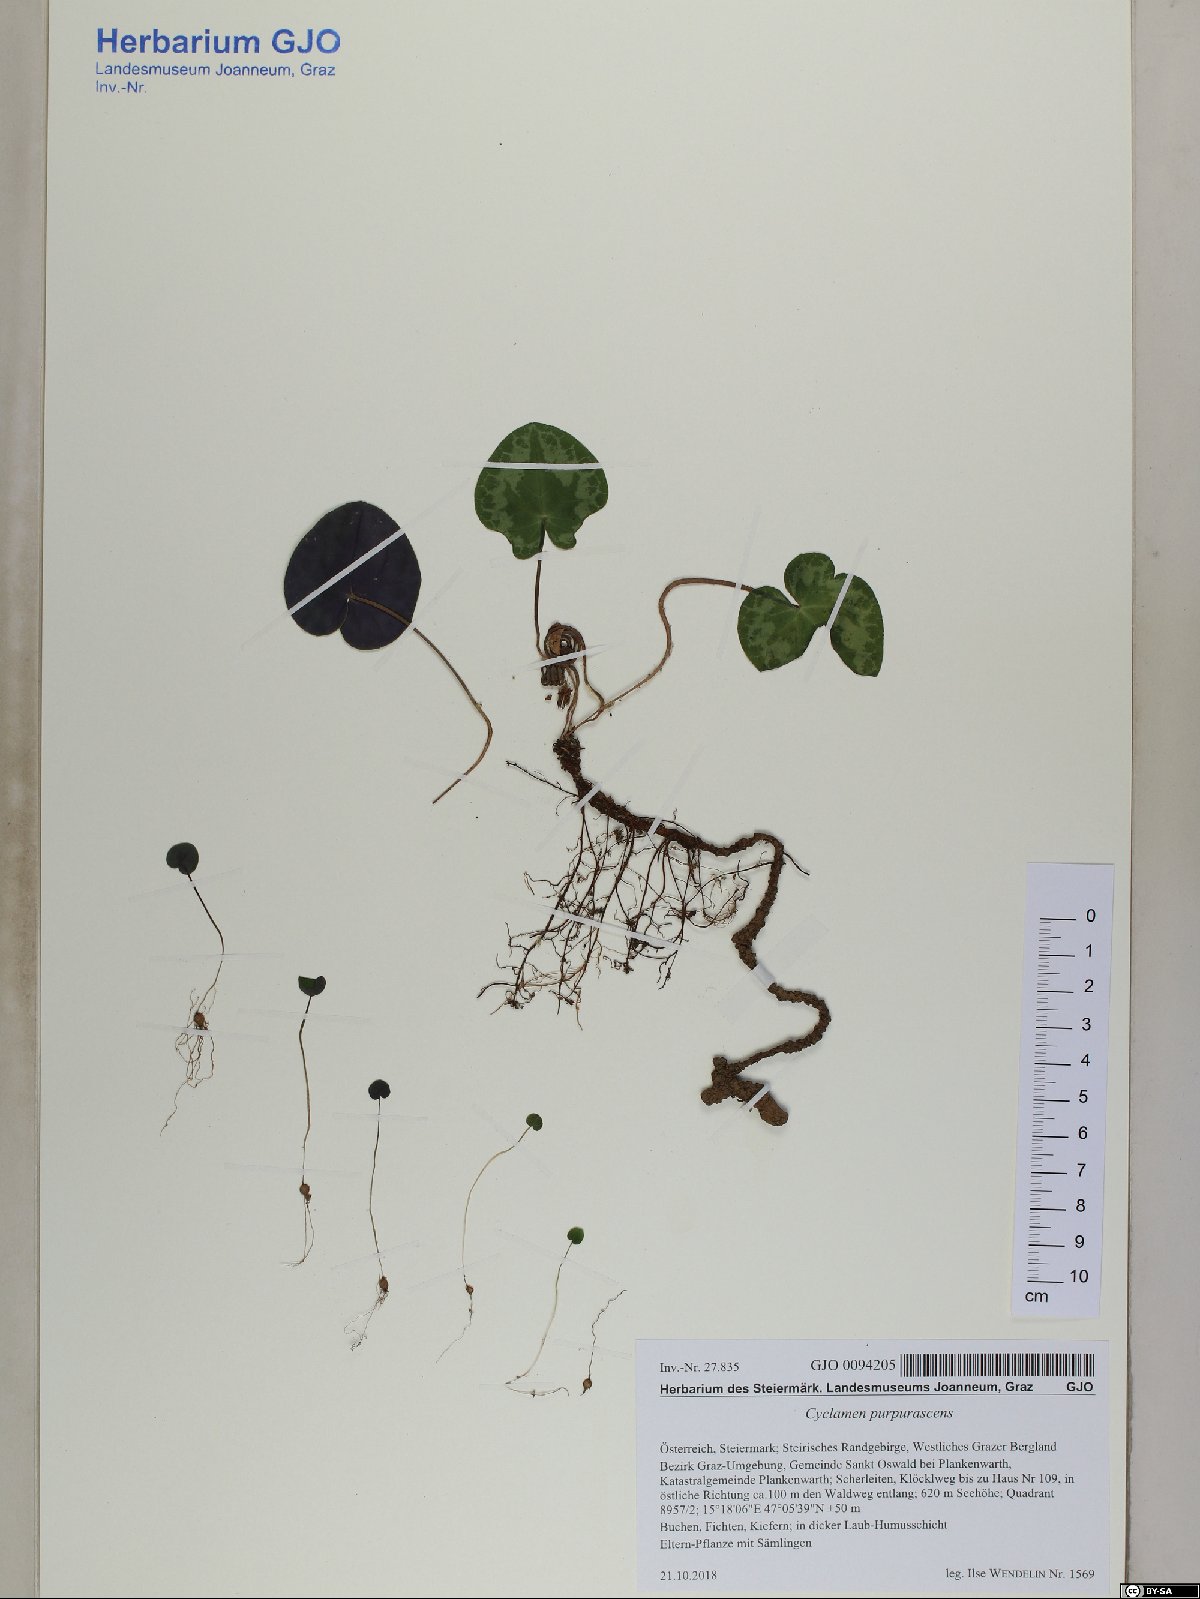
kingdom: Plantae
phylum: Tracheophyta
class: Magnoliopsida
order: Ericales
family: Primulaceae
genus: Cyclamen
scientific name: Cyclamen purpurascens
